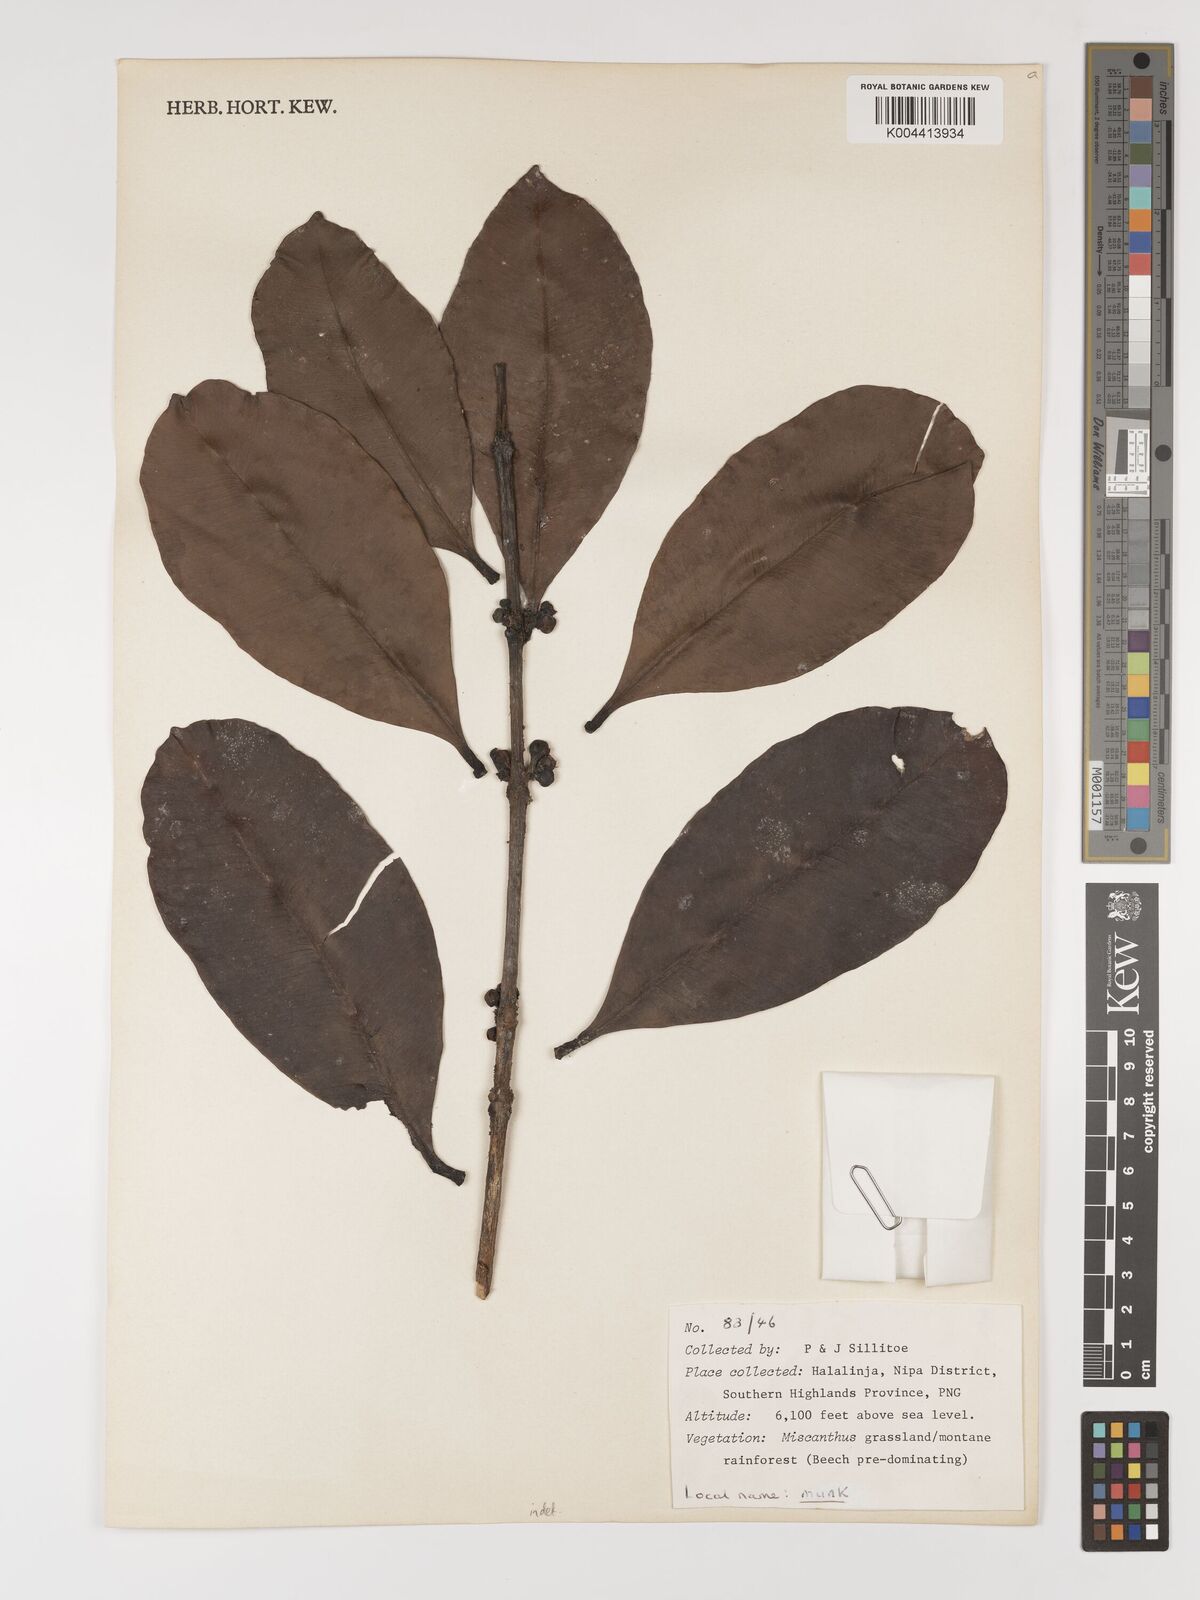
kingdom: Plantae
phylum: Tracheophyta
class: Magnoliopsida
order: Myrtales
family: Myrtaceae
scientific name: Myrtaceae
